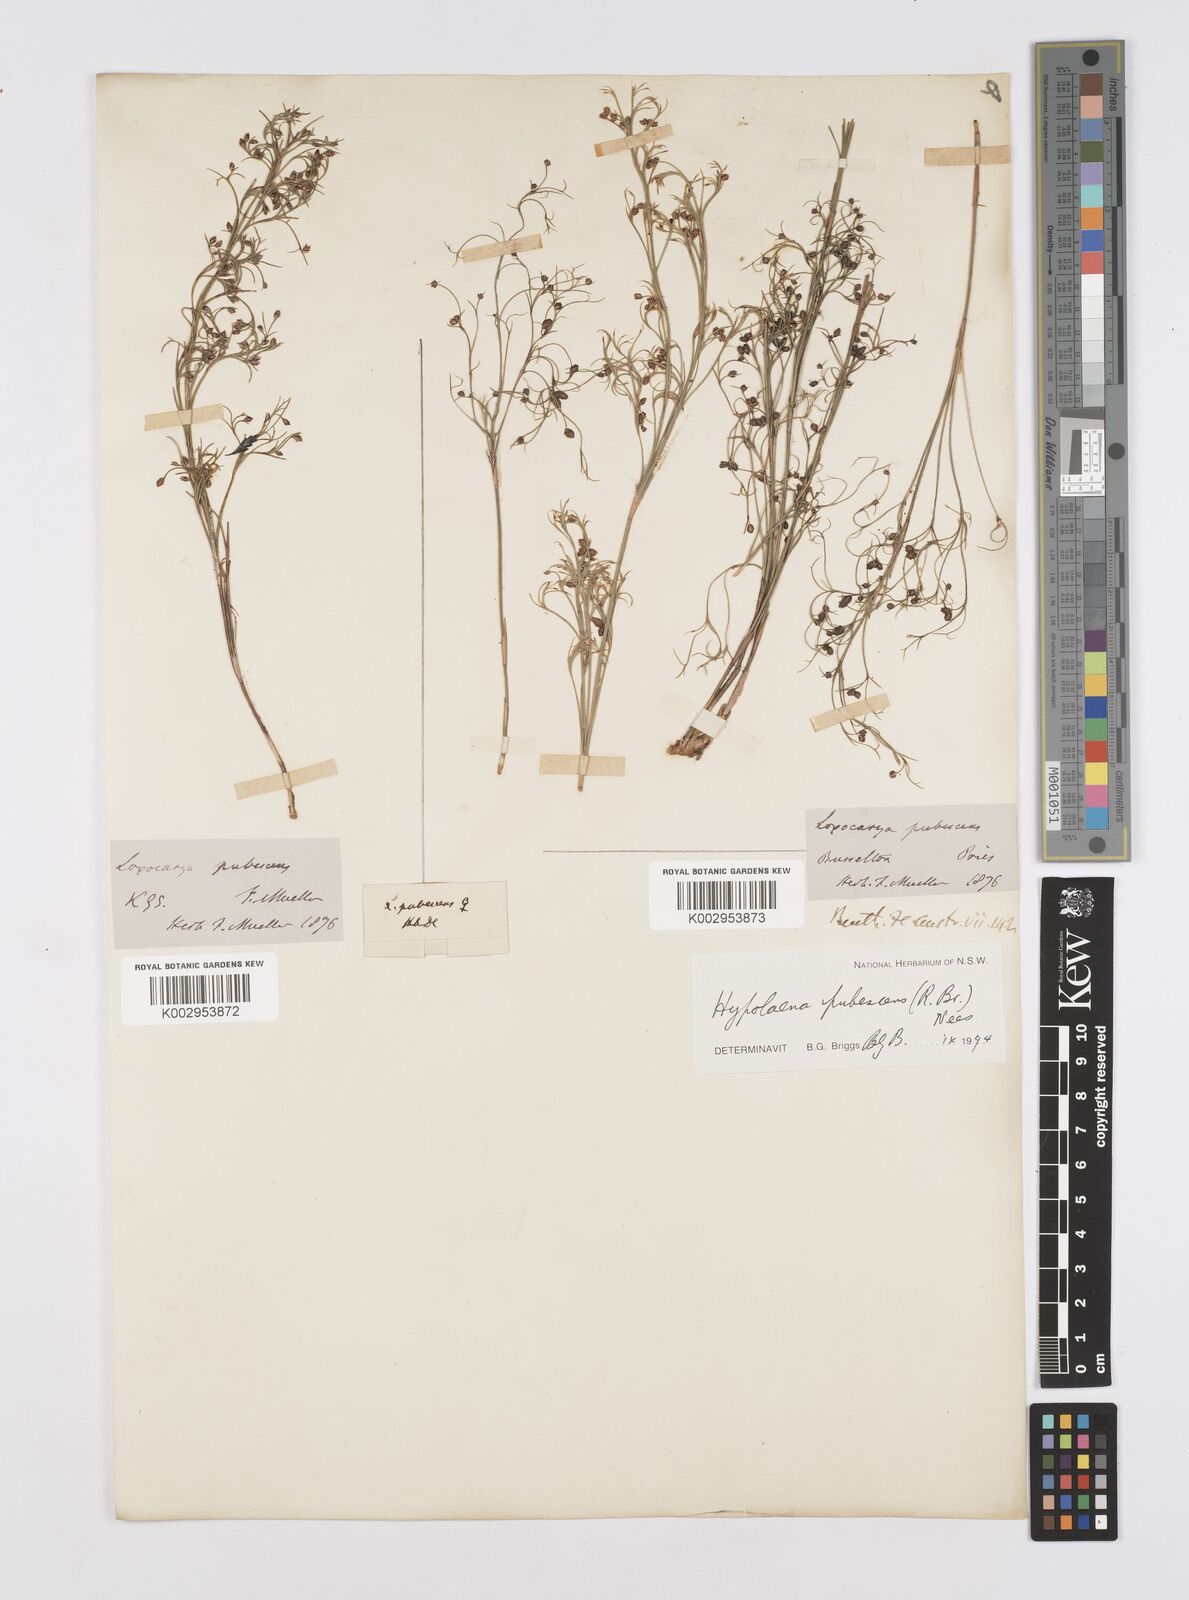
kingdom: Plantae
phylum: Tracheophyta
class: Liliopsida
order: Poales
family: Restionaceae
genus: Hypolaena
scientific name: Hypolaena pubescens
